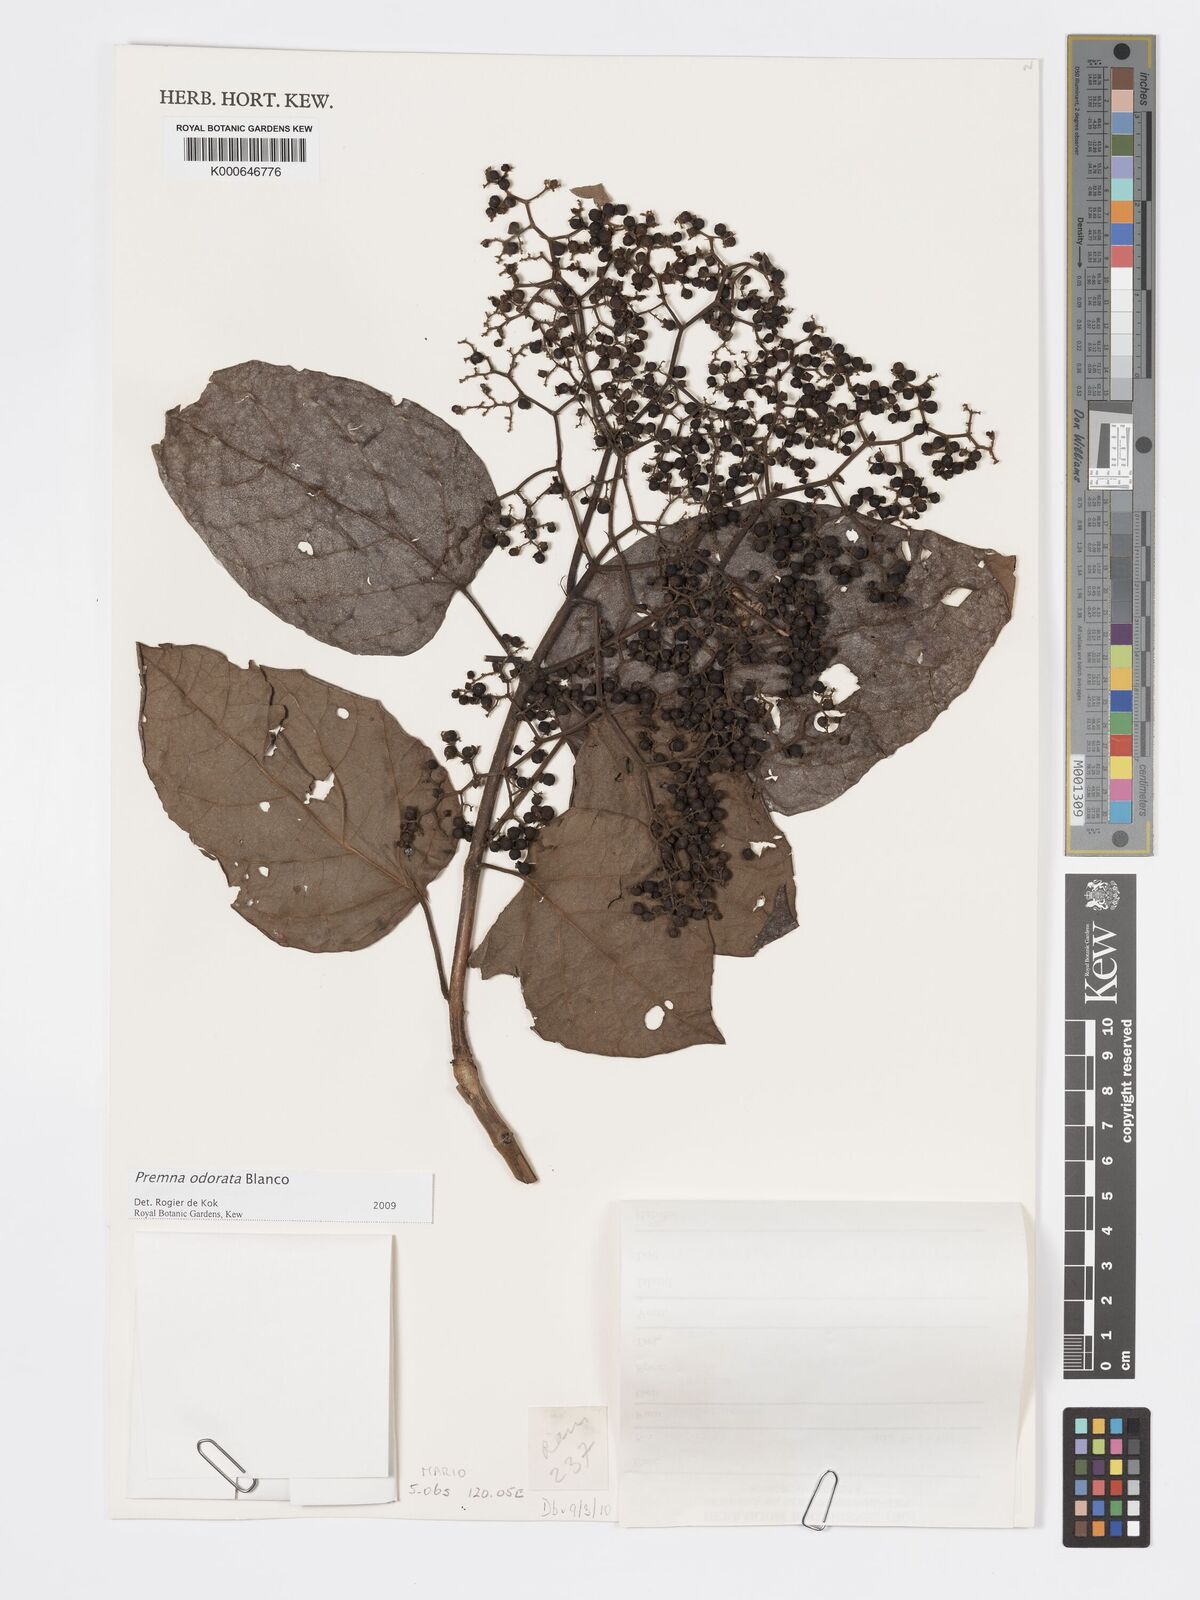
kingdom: Plantae
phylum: Tracheophyta
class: Magnoliopsida
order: Lamiales
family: Lamiaceae
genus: Premna
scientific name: Premna odorata
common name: Fragrant premna
